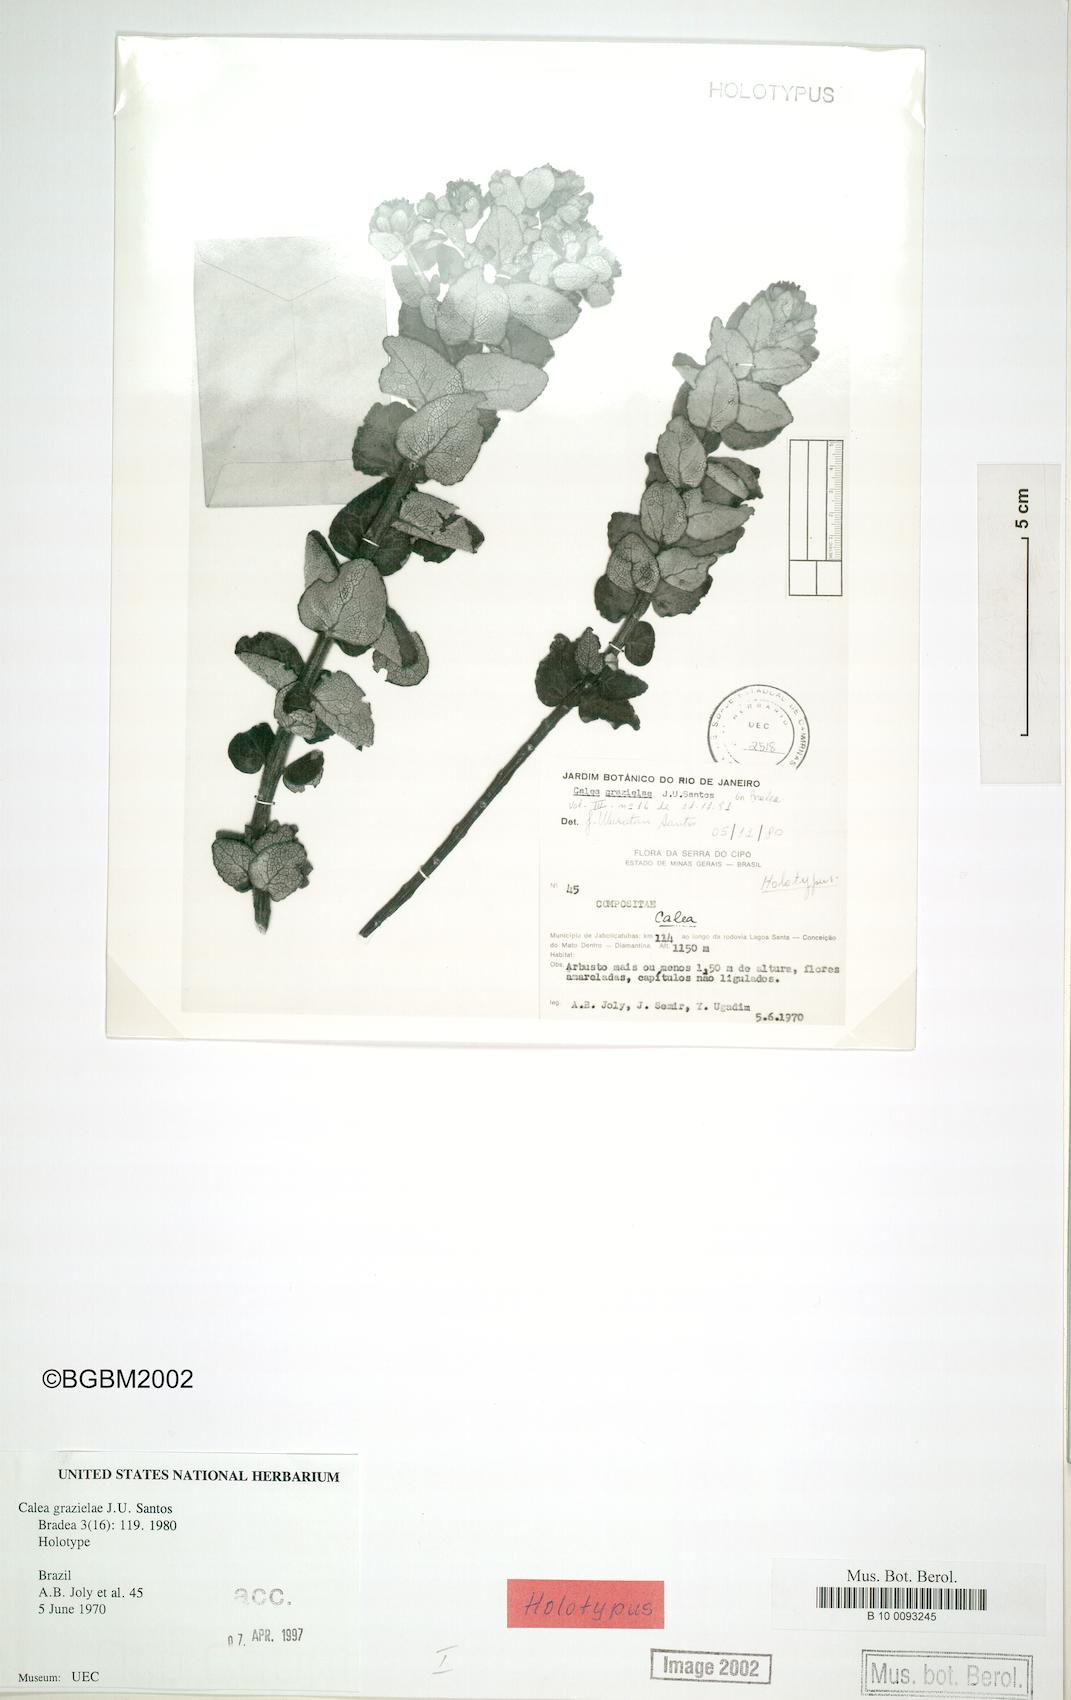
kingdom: Plantae
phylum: Tracheophyta
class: Magnoliopsida
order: Asterales
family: Asteraceae
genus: Calea
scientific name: Calea grazielae
